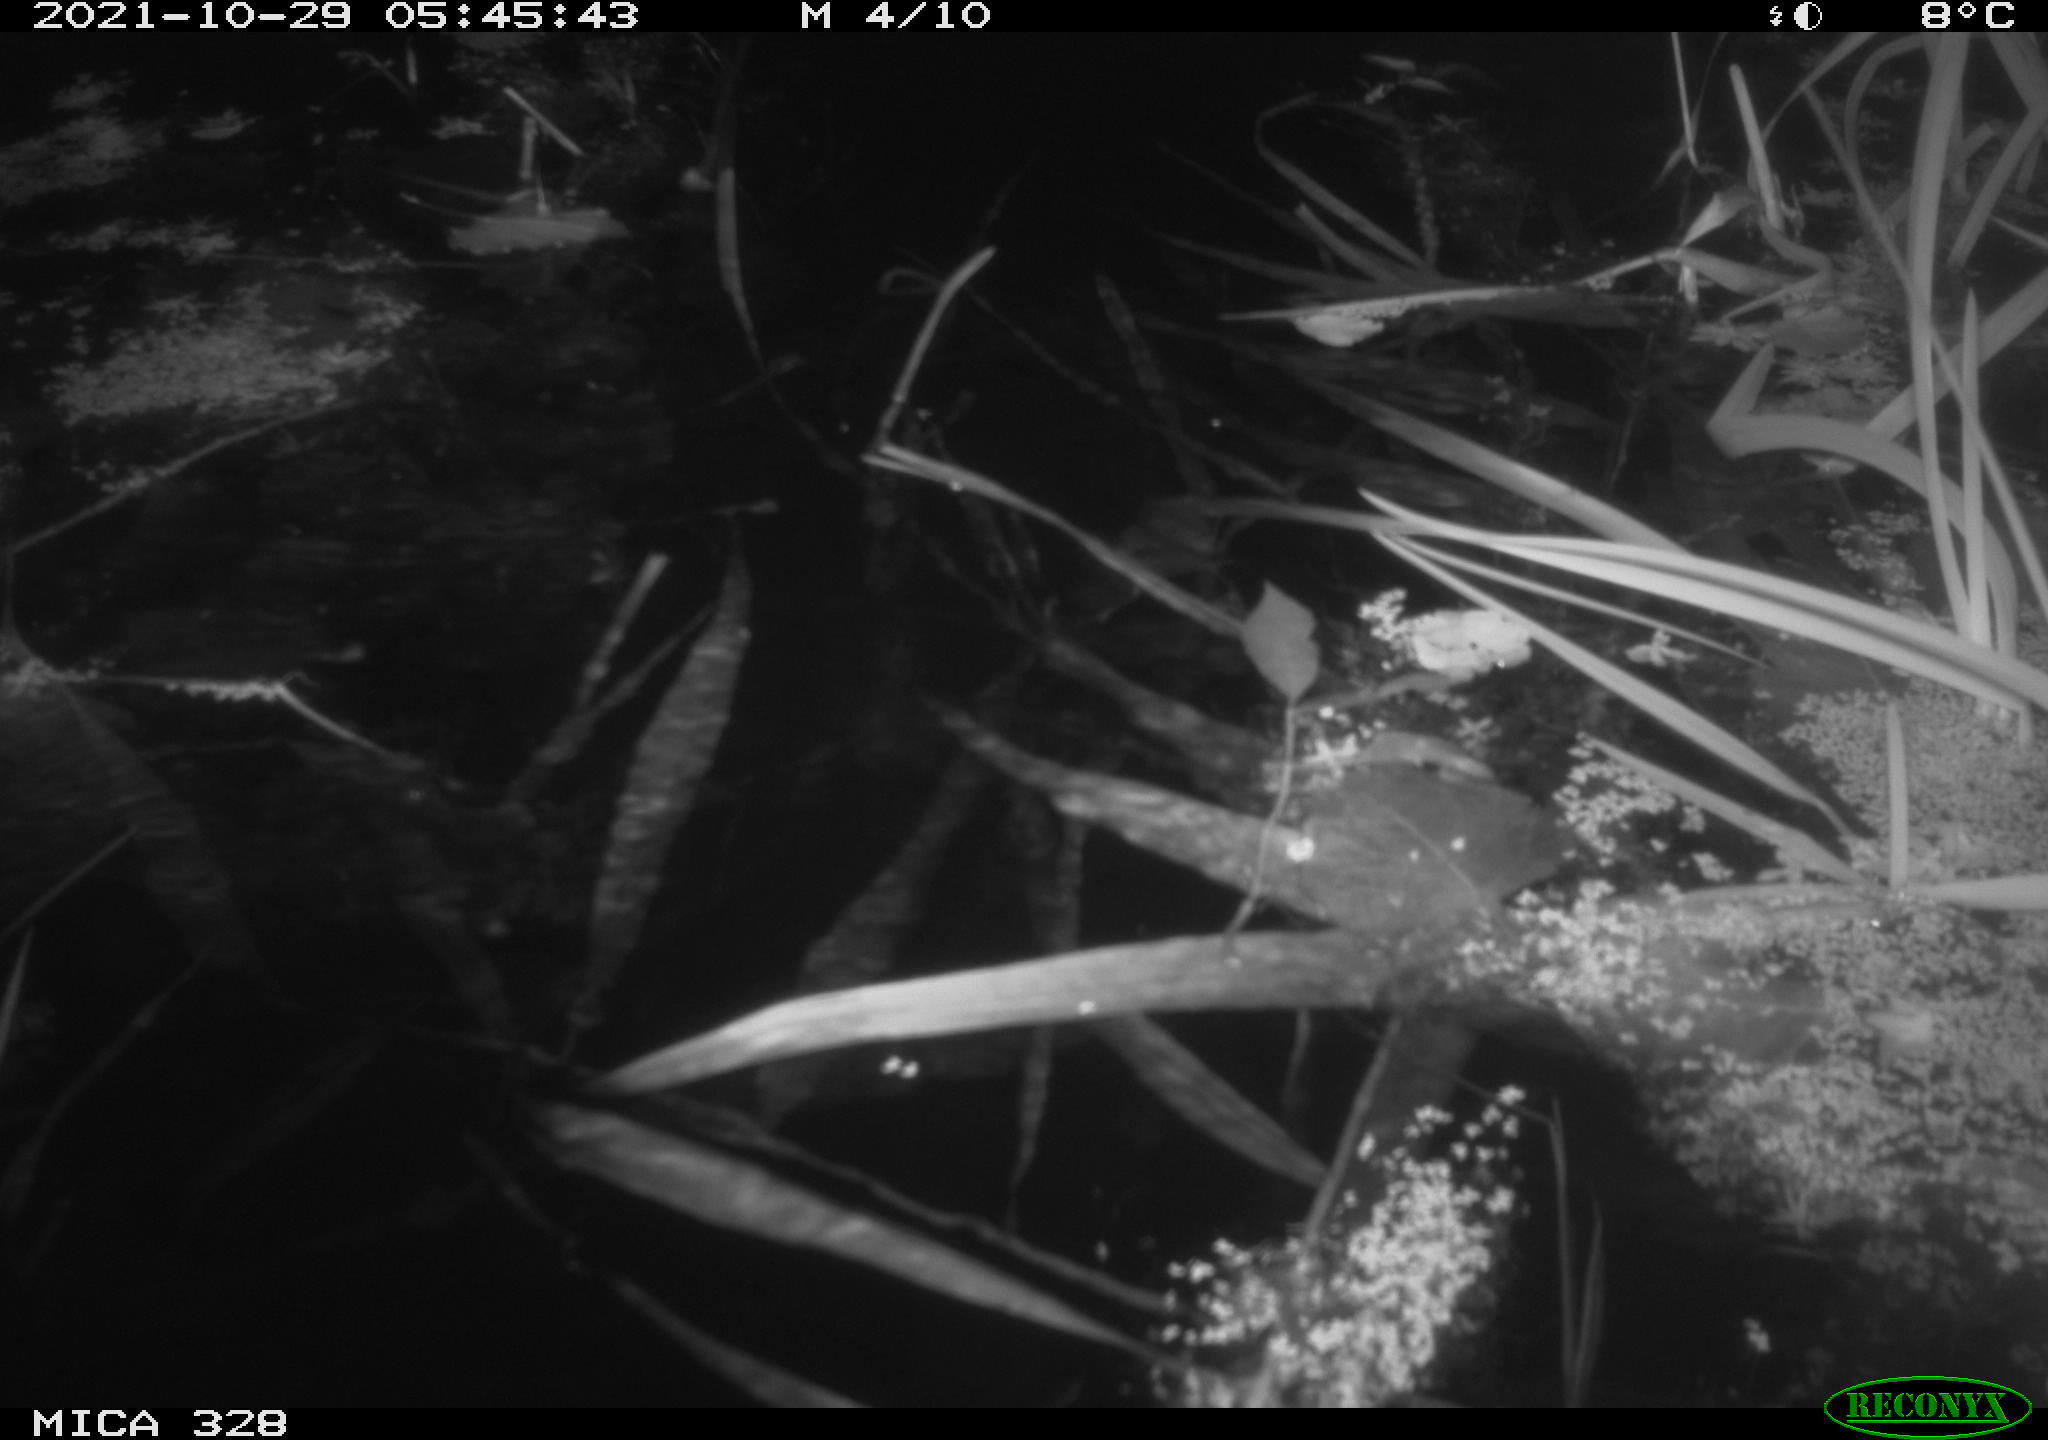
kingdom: Animalia
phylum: Chordata
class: Mammalia
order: Rodentia
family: Cricetidae
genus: Ondatra
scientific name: Ondatra zibethicus
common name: Muskrat
